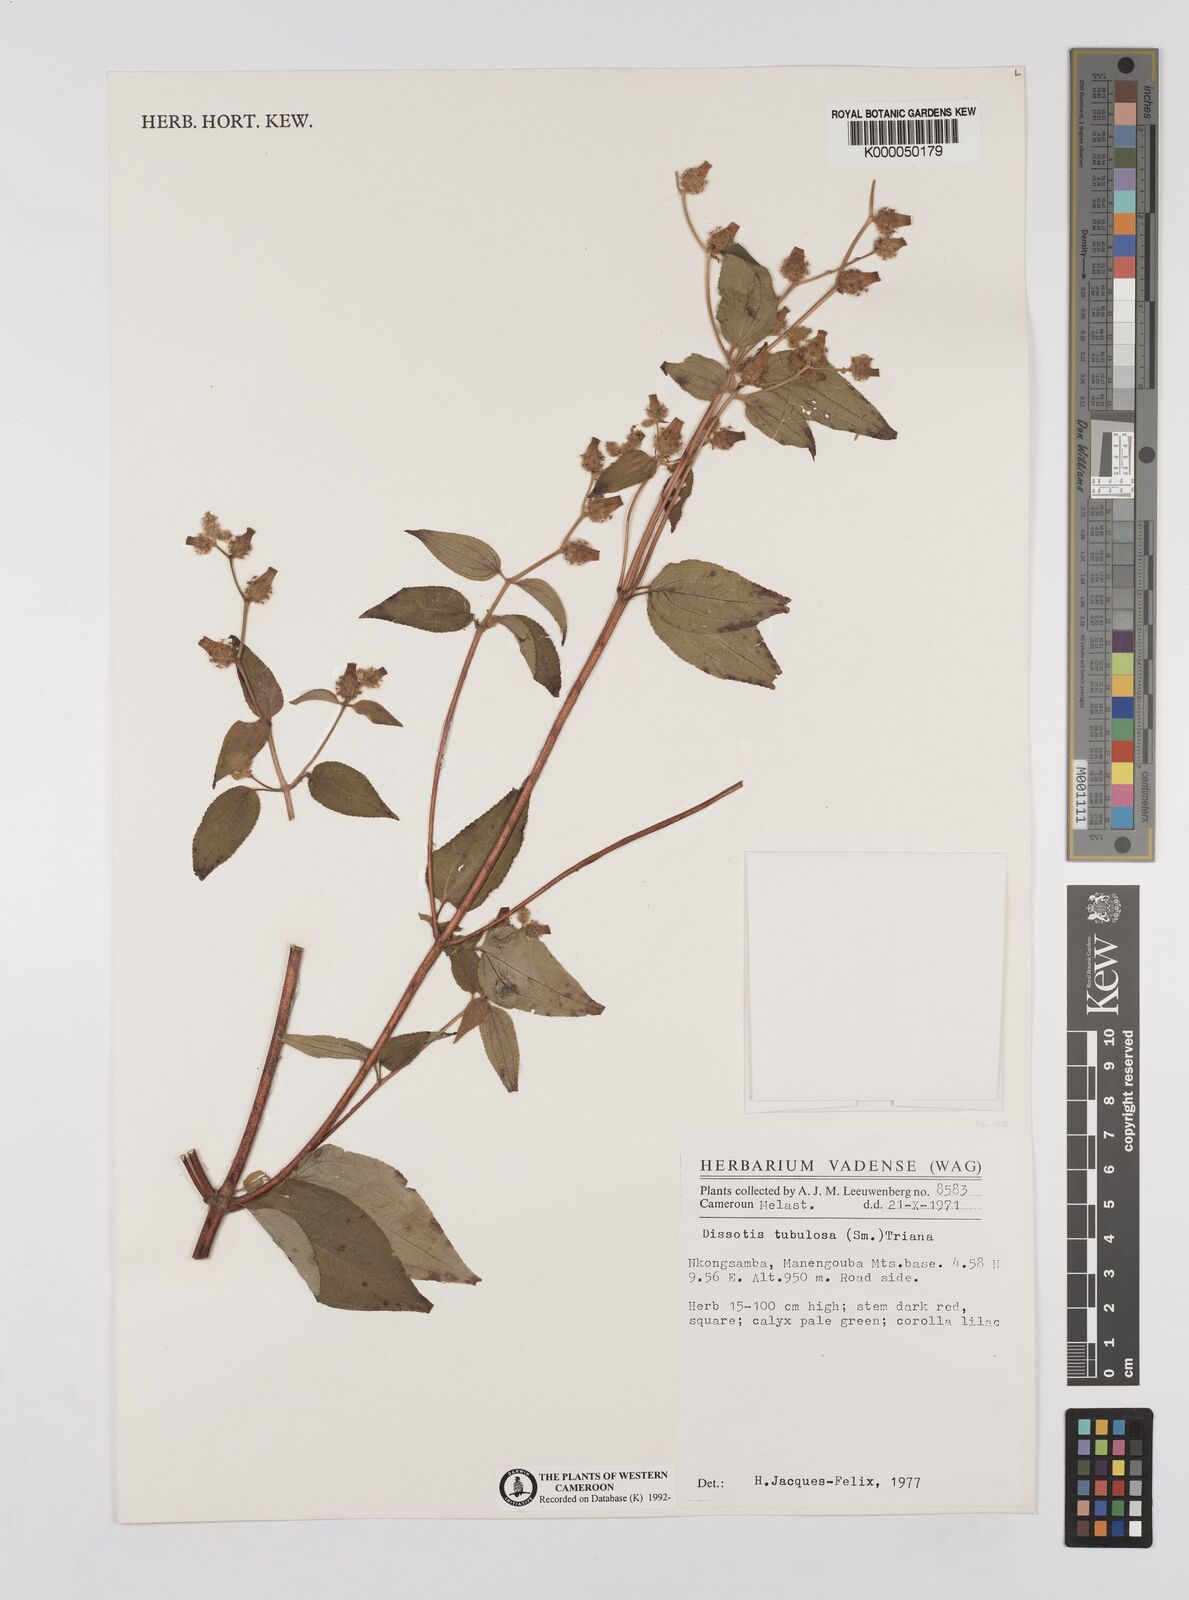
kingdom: Plantae
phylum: Tracheophyta
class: Magnoliopsida
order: Myrtales
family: Melastomataceae
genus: Derosiphia
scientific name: Derosiphia tubulosa
